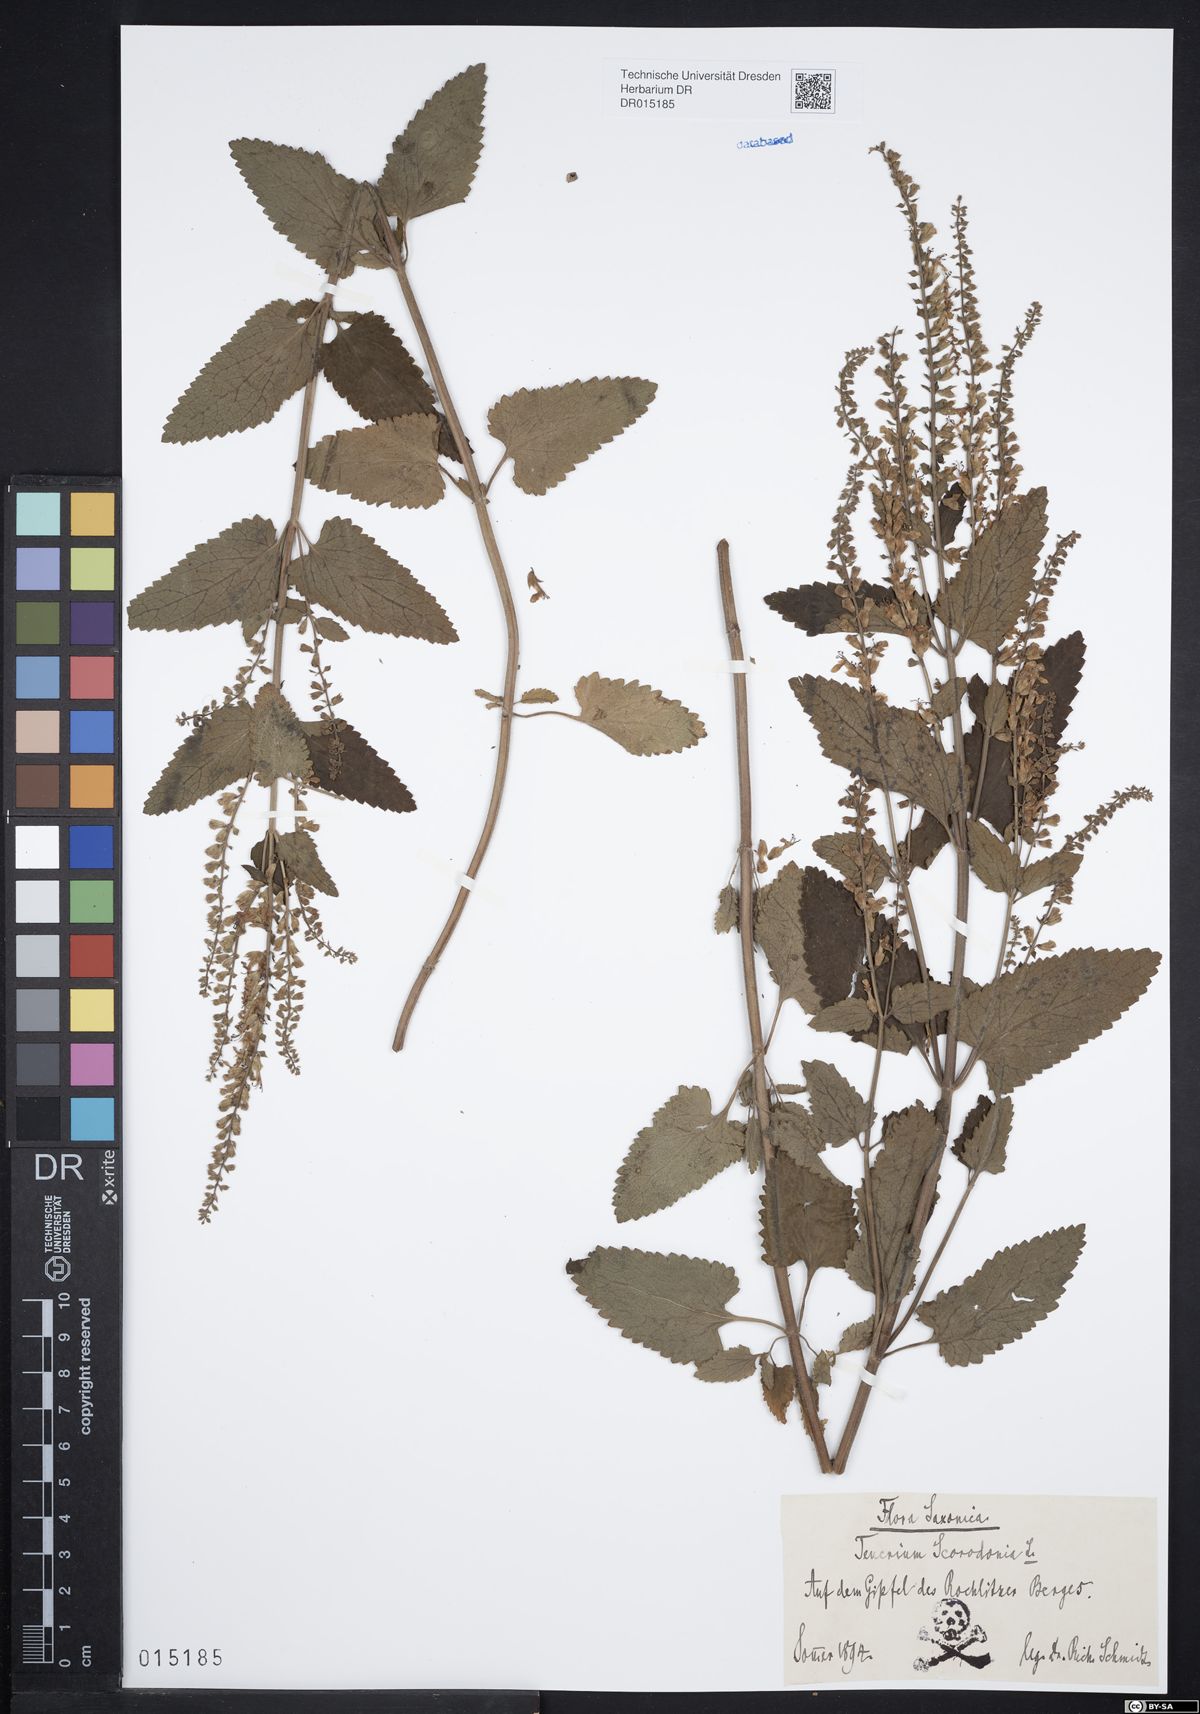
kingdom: Plantae
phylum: Tracheophyta
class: Magnoliopsida
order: Lamiales
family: Lamiaceae
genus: Teucrium
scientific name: Teucrium scorodonia
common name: Woodland germander
